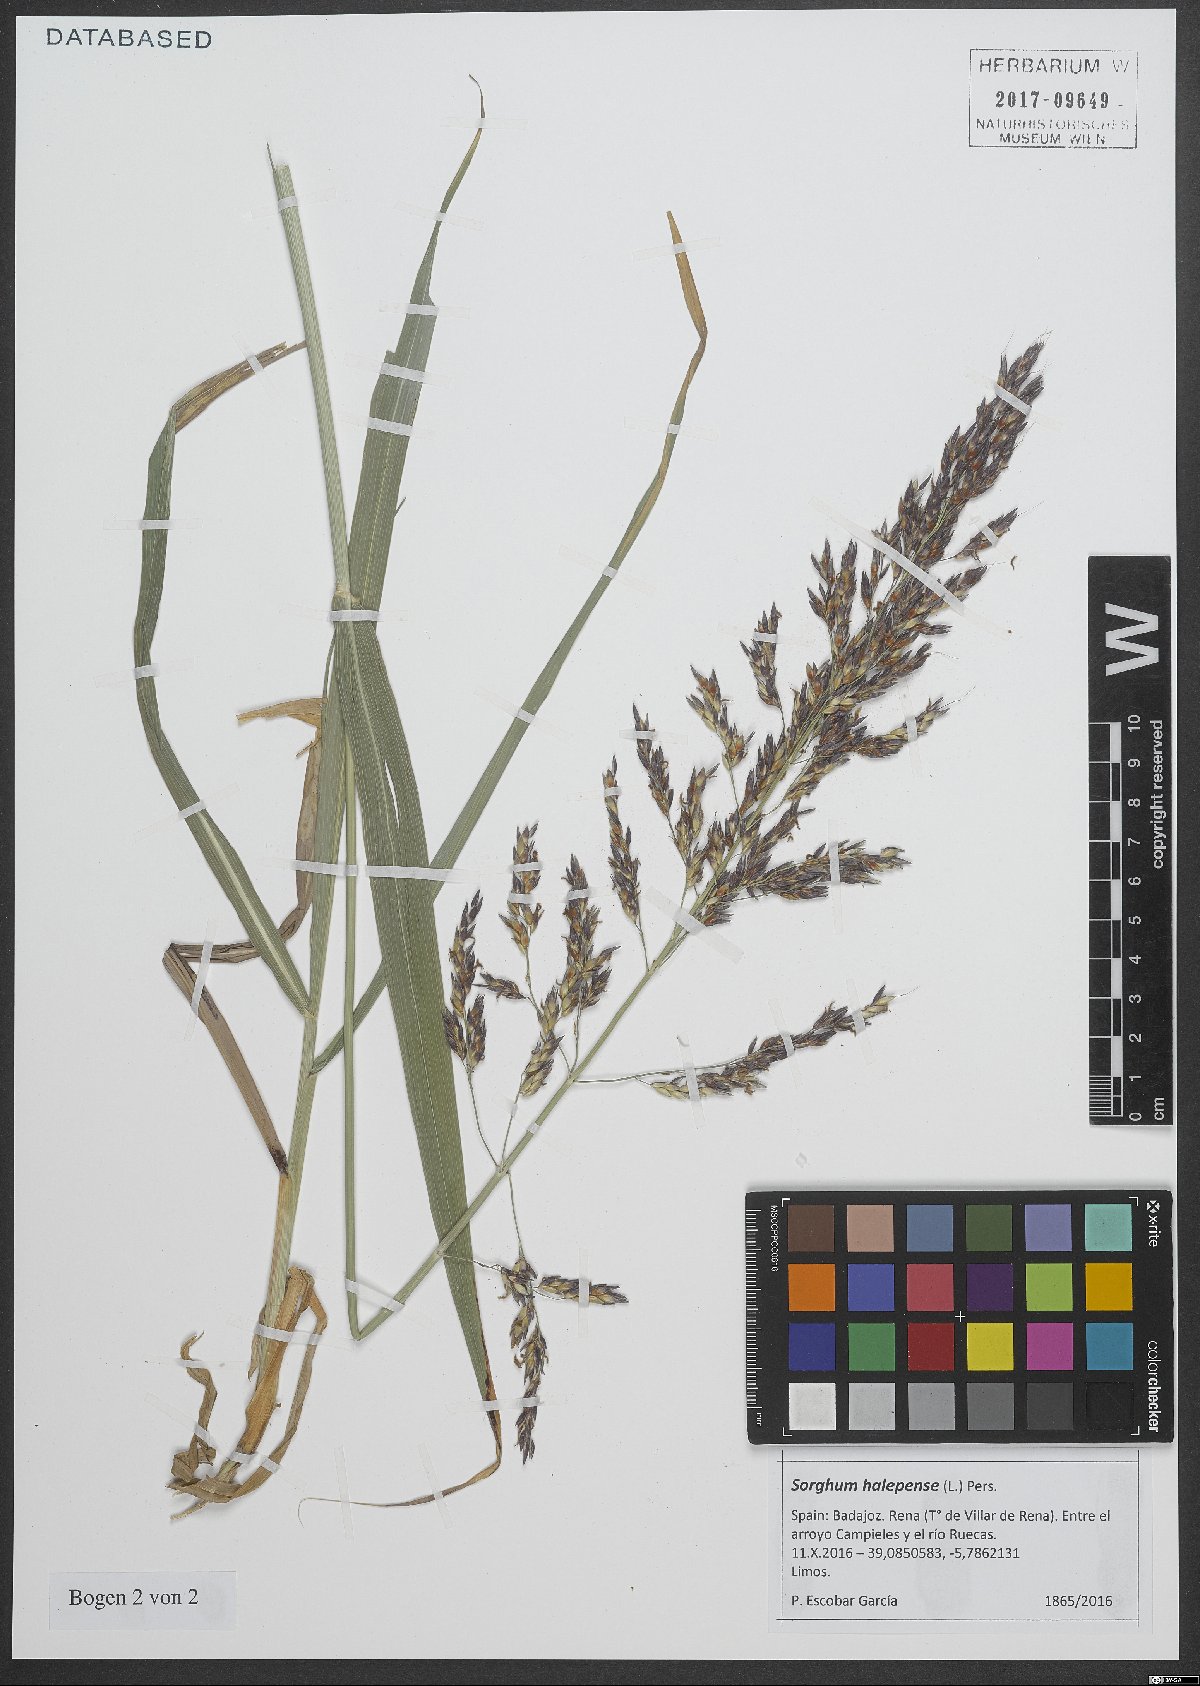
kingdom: Plantae
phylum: Tracheophyta
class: Liliopsida
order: Poales
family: Poaceae
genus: Sorghum
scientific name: Sorghum halepense
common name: Johnson-grass
